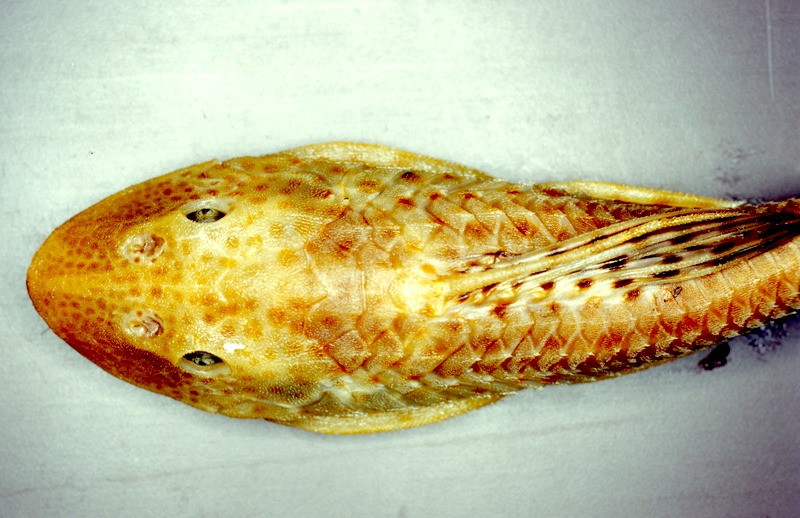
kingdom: Animalia
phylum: Chordata
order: Siluriformes
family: Loricariidae
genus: Hypostomus
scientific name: Hypostomus affinis
